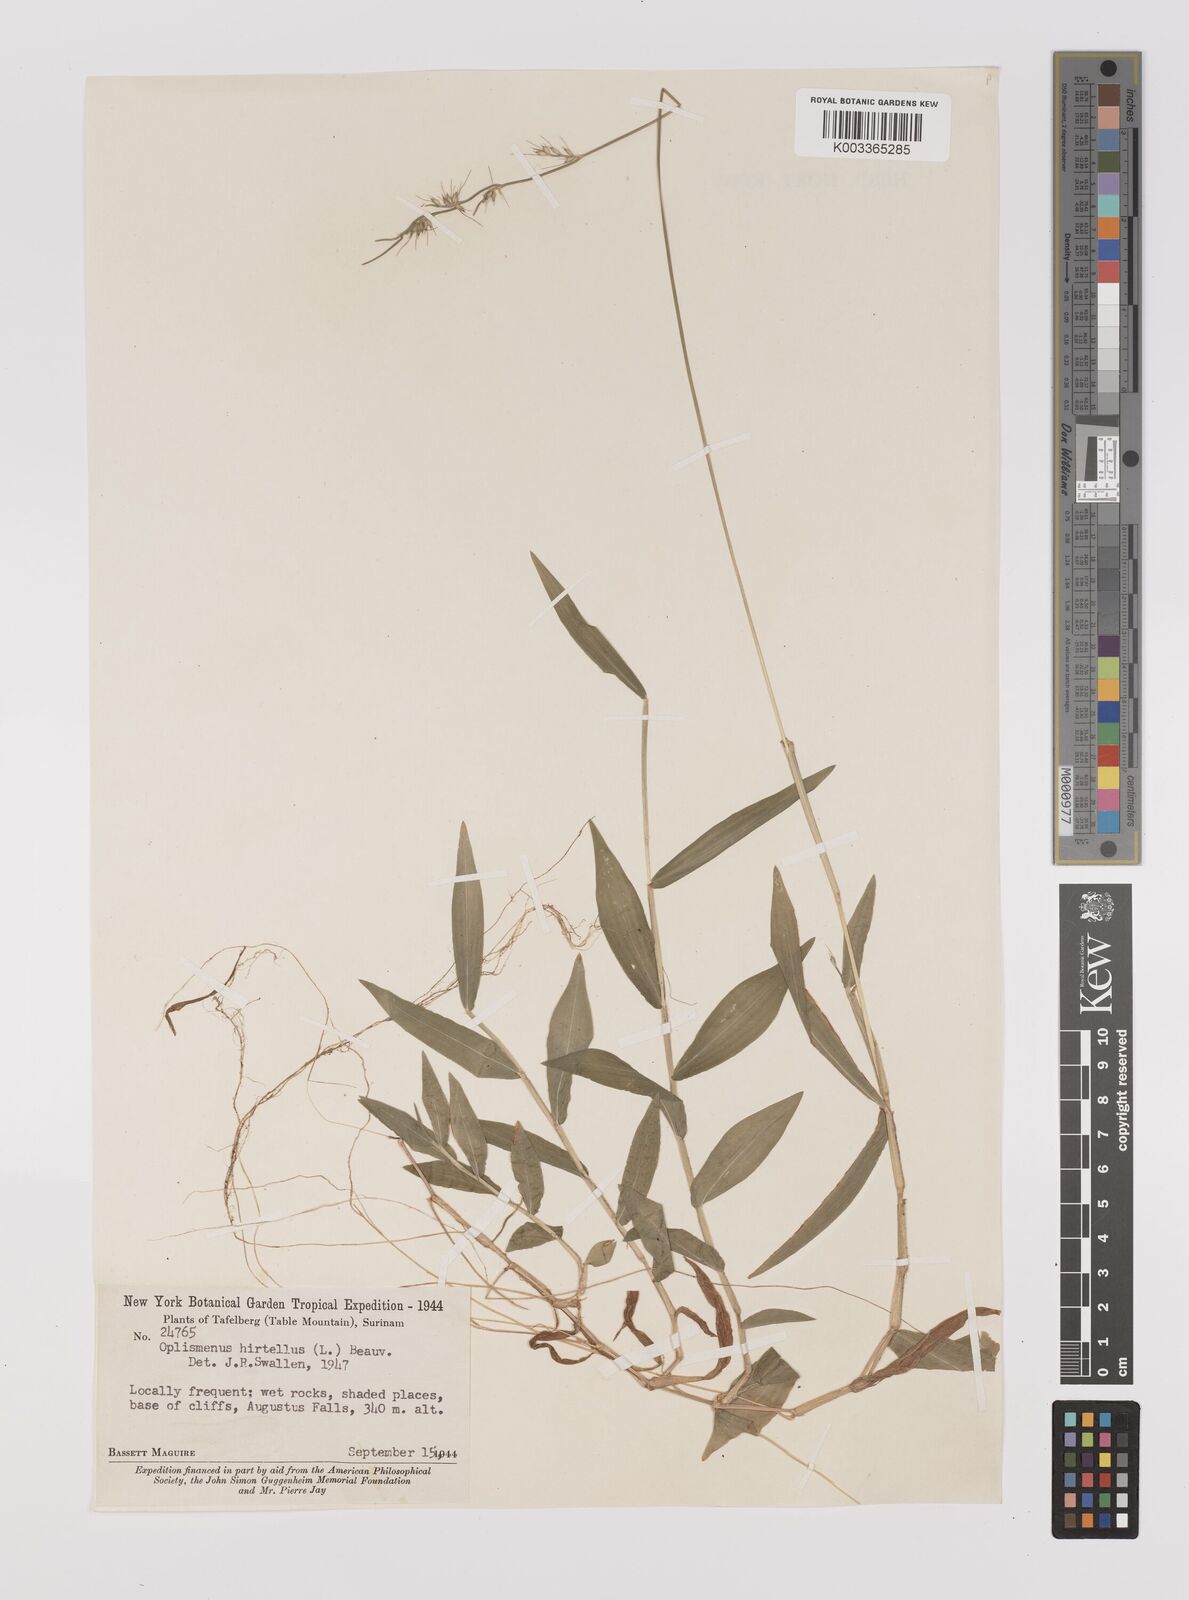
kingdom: Plantae
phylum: Tracheophyta
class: Liliopsida
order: Poales
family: Poaceae
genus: Oplismenus
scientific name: Oplismenus hirtellus
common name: Basketgrass
